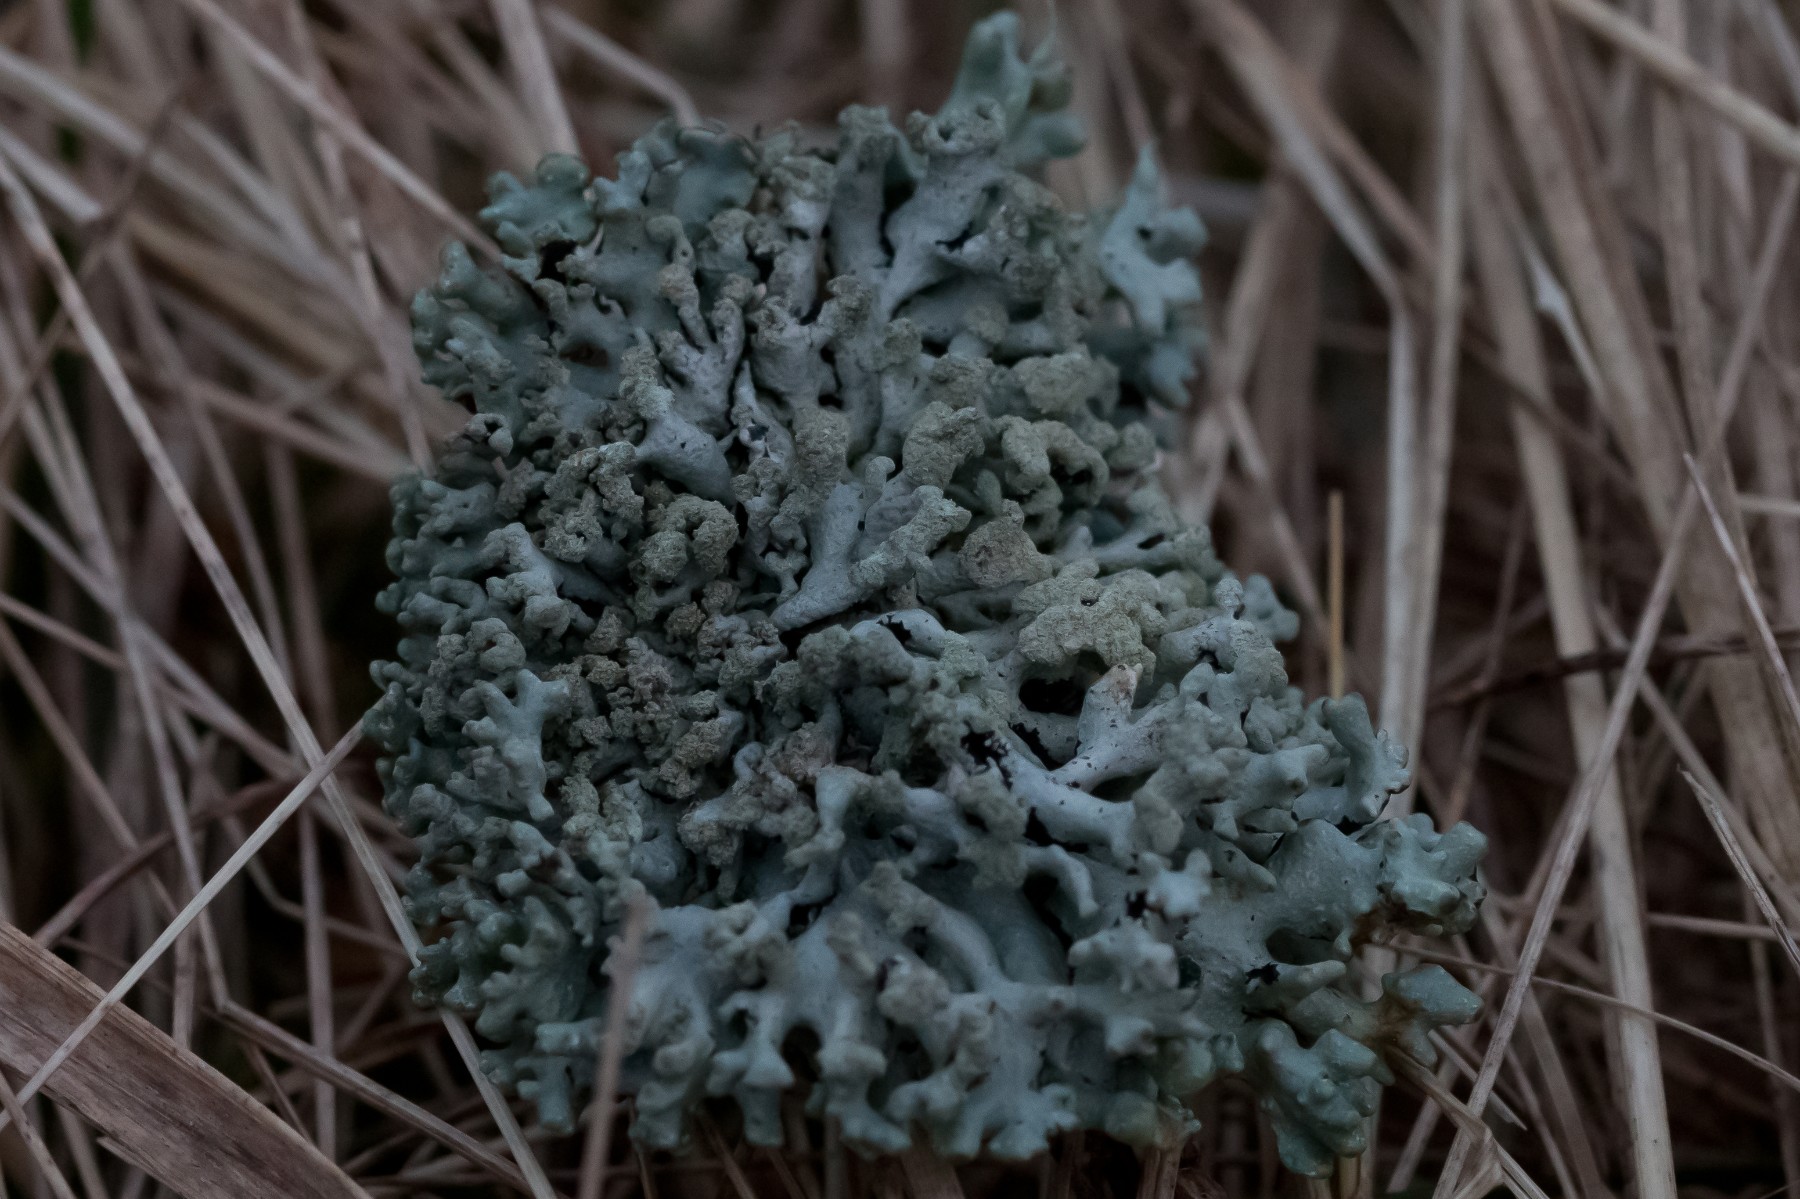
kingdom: Fungi
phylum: Ascomycota
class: Lecanoromycetes
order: Lecanorales
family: Parmeliaceae
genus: Hypogymnia
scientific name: Hypogymnia tubulosa
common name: finger-kvistlav
